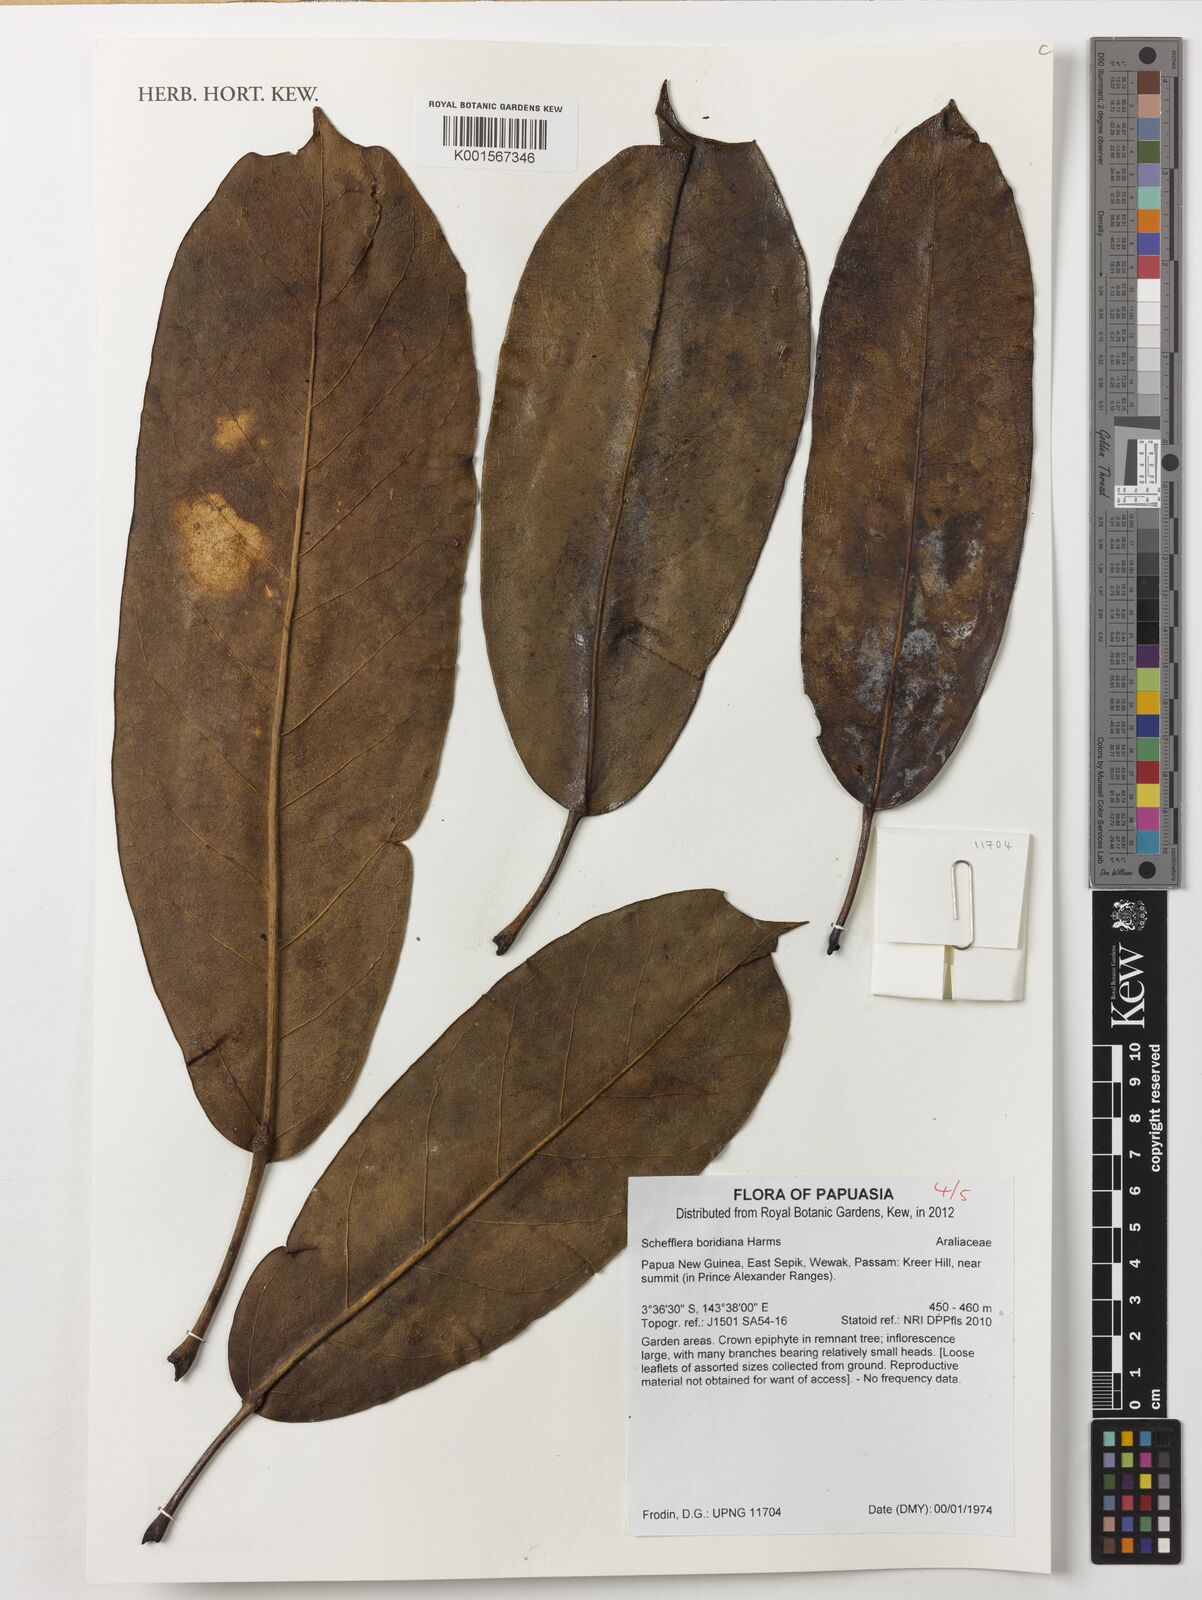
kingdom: Plantae
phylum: Tracheophyta
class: Magnoliopsida
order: Apiales
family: Araliaceae
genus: Heptapleurum
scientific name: Heptapleurum boridianum
